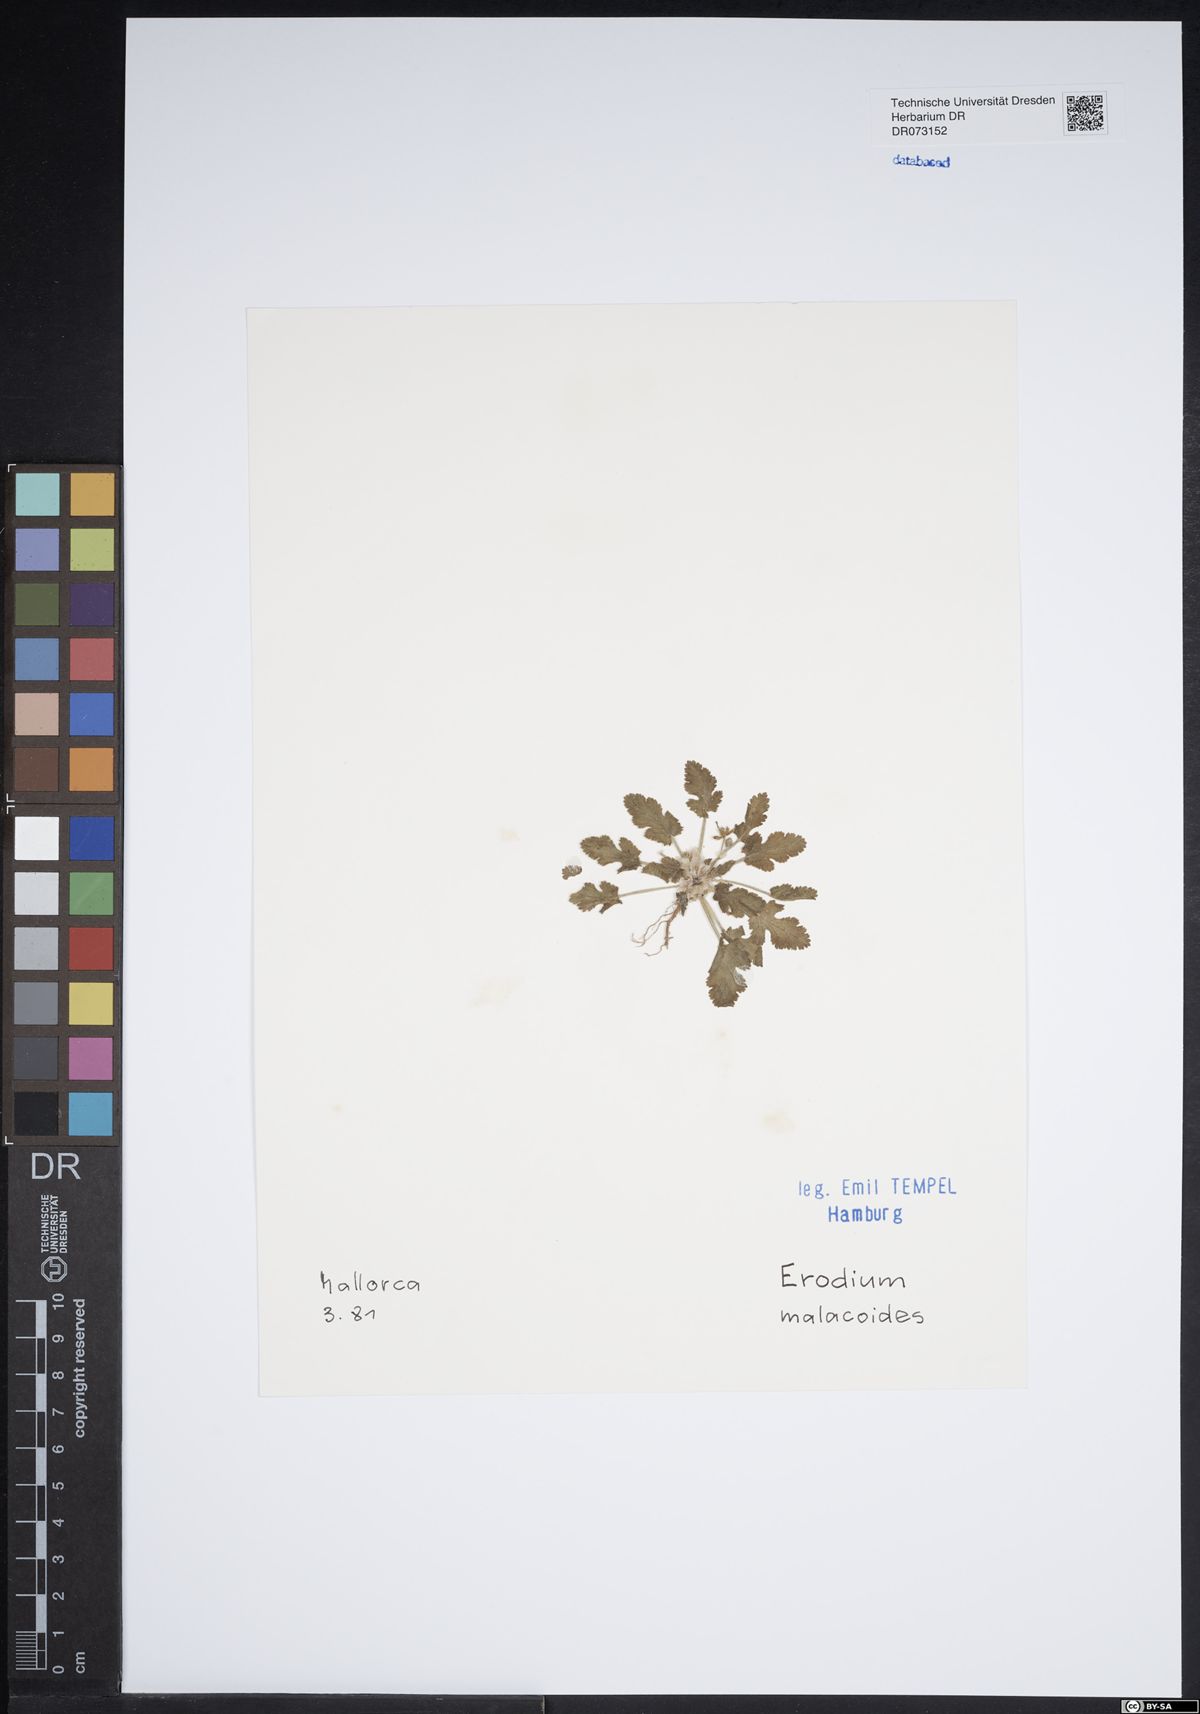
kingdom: Plantae
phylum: Tracheophyta
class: Magnoliopsida
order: Geraniales
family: Geraniaceae
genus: Erodium
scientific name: Erodium malacoides
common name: Soft stork's-bill
